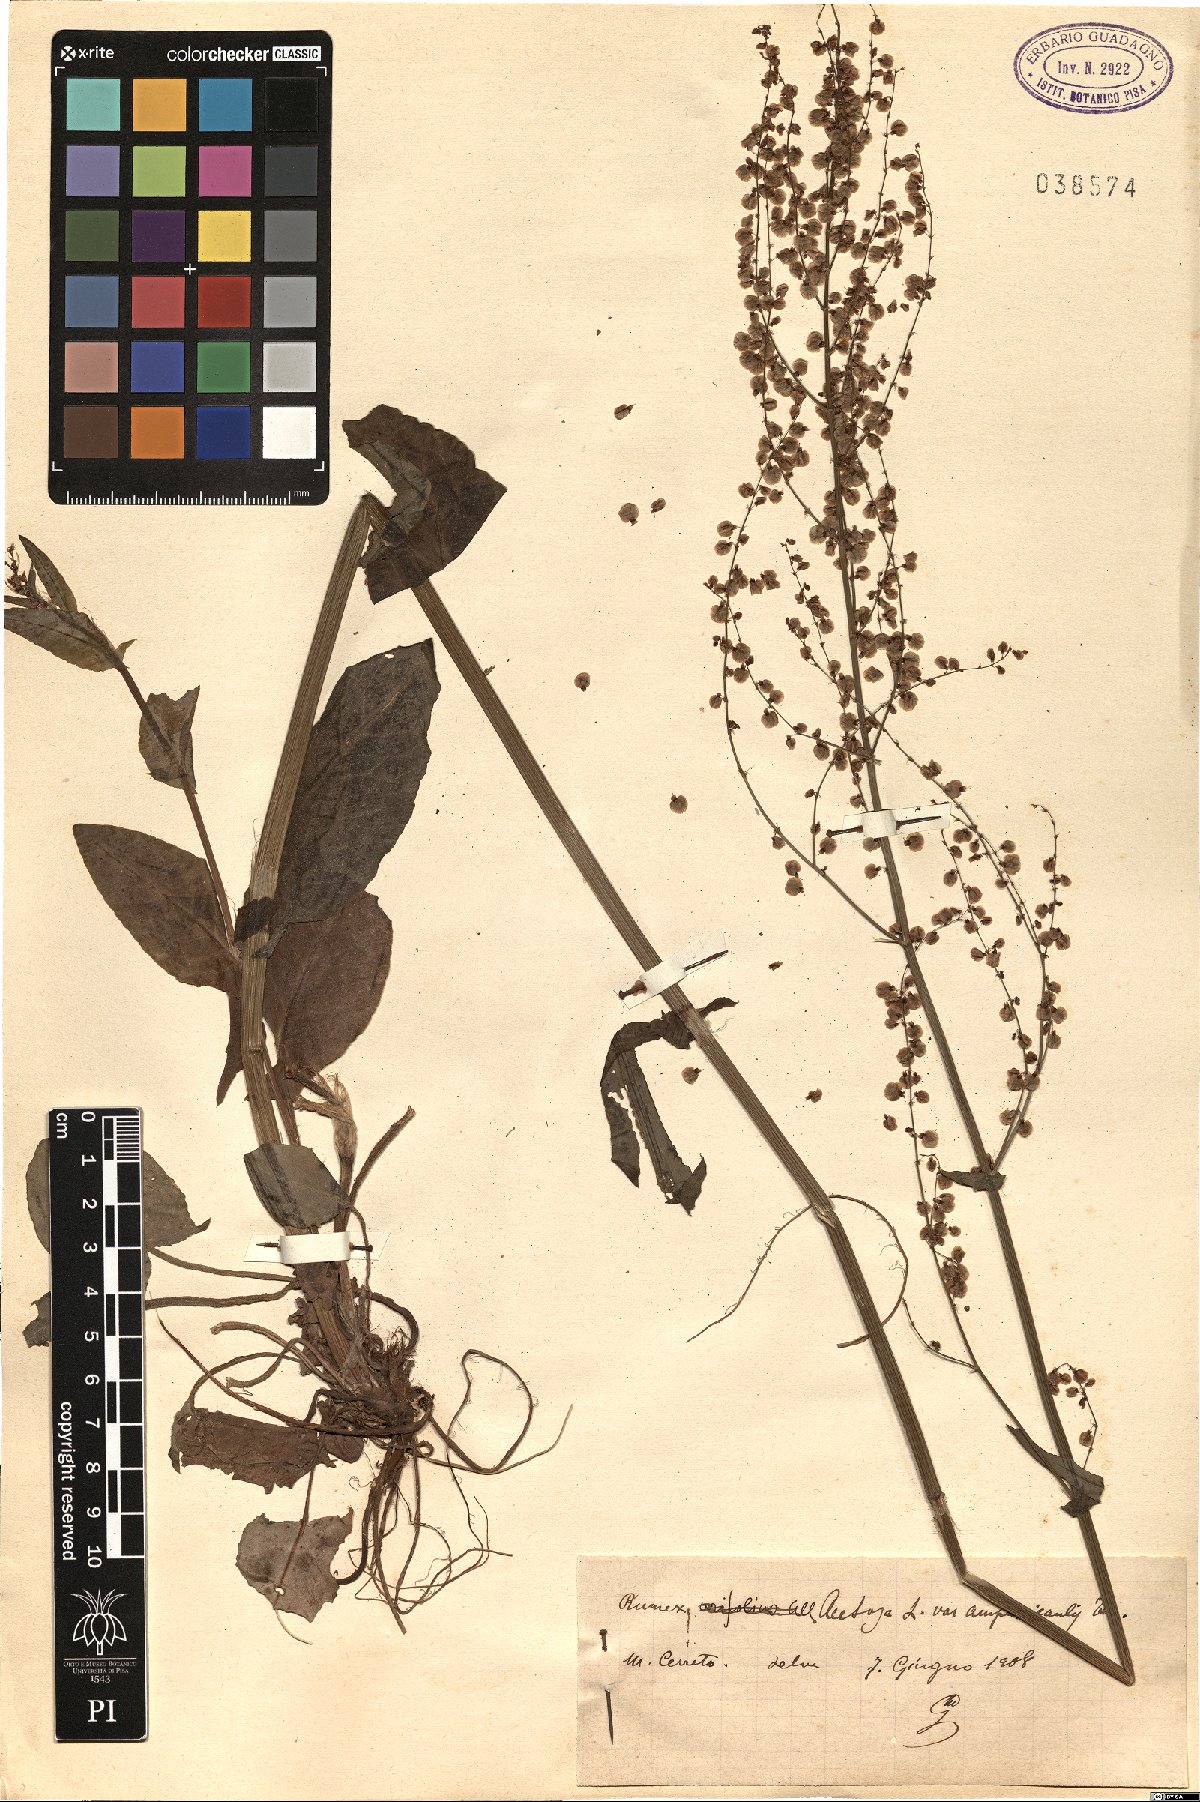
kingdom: Plantae
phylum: Tracheophyta
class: Magnoliopsida
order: Caryophyllales
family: Polygonaceae
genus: Rumex
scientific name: Rumex arifolius
